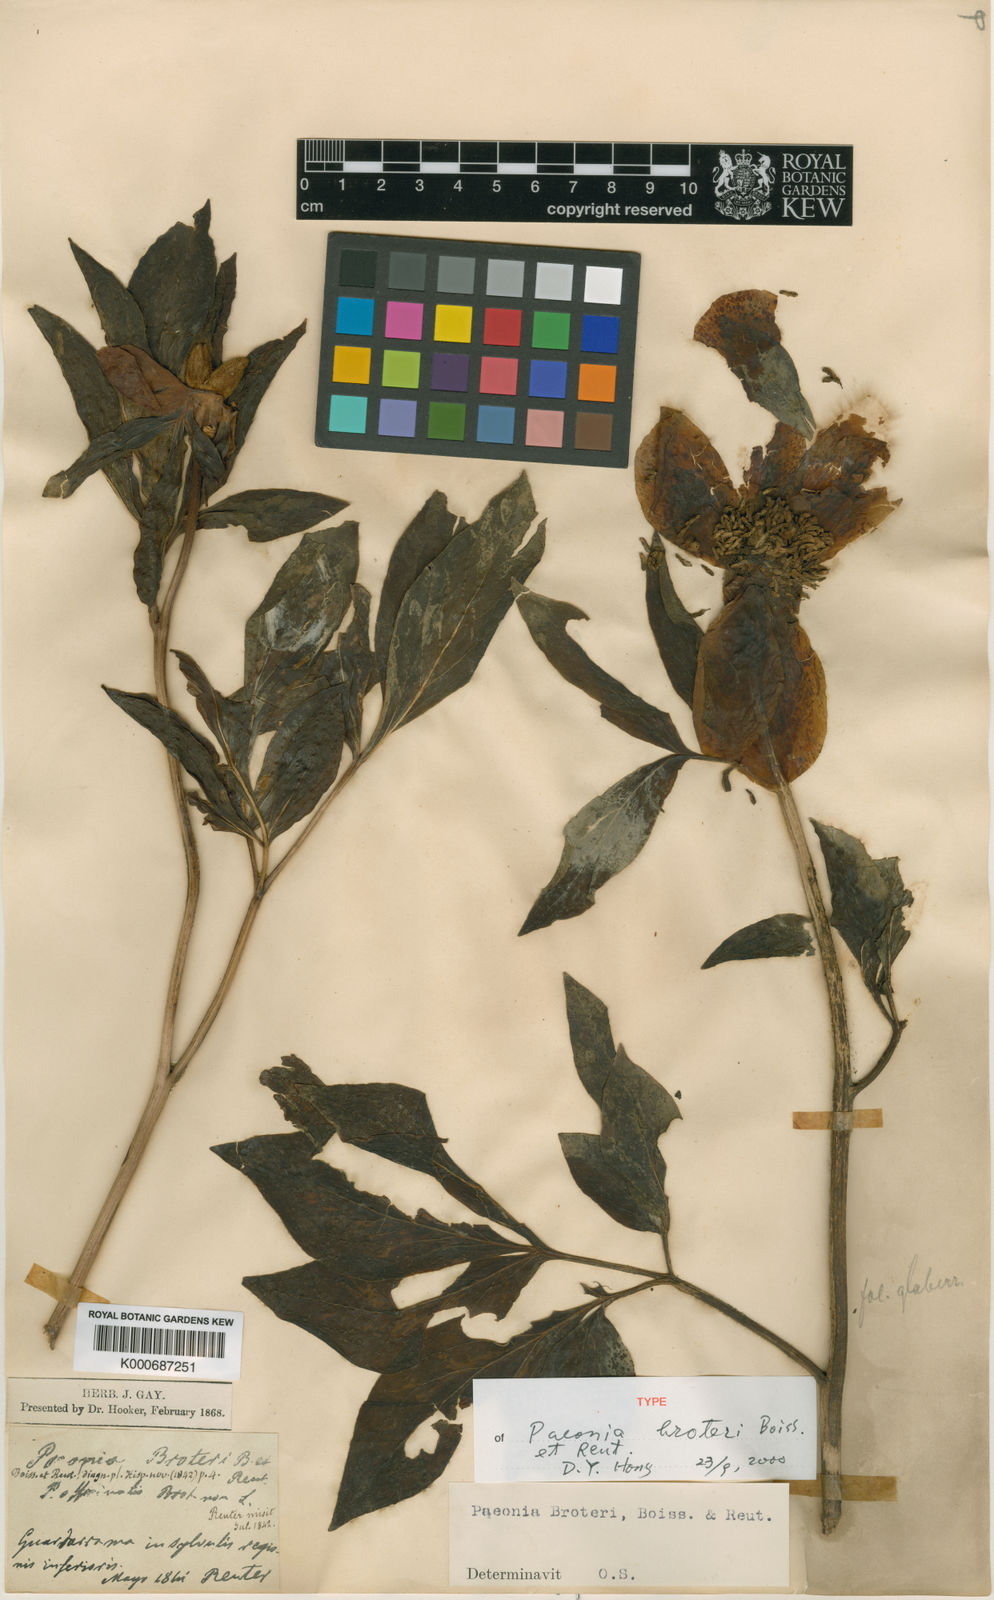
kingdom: Plantae
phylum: Tracheophyta
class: Magnoliopsida
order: Saxifragales
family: Paeoniaceae
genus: Paeonia
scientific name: Paeonia broteroi
